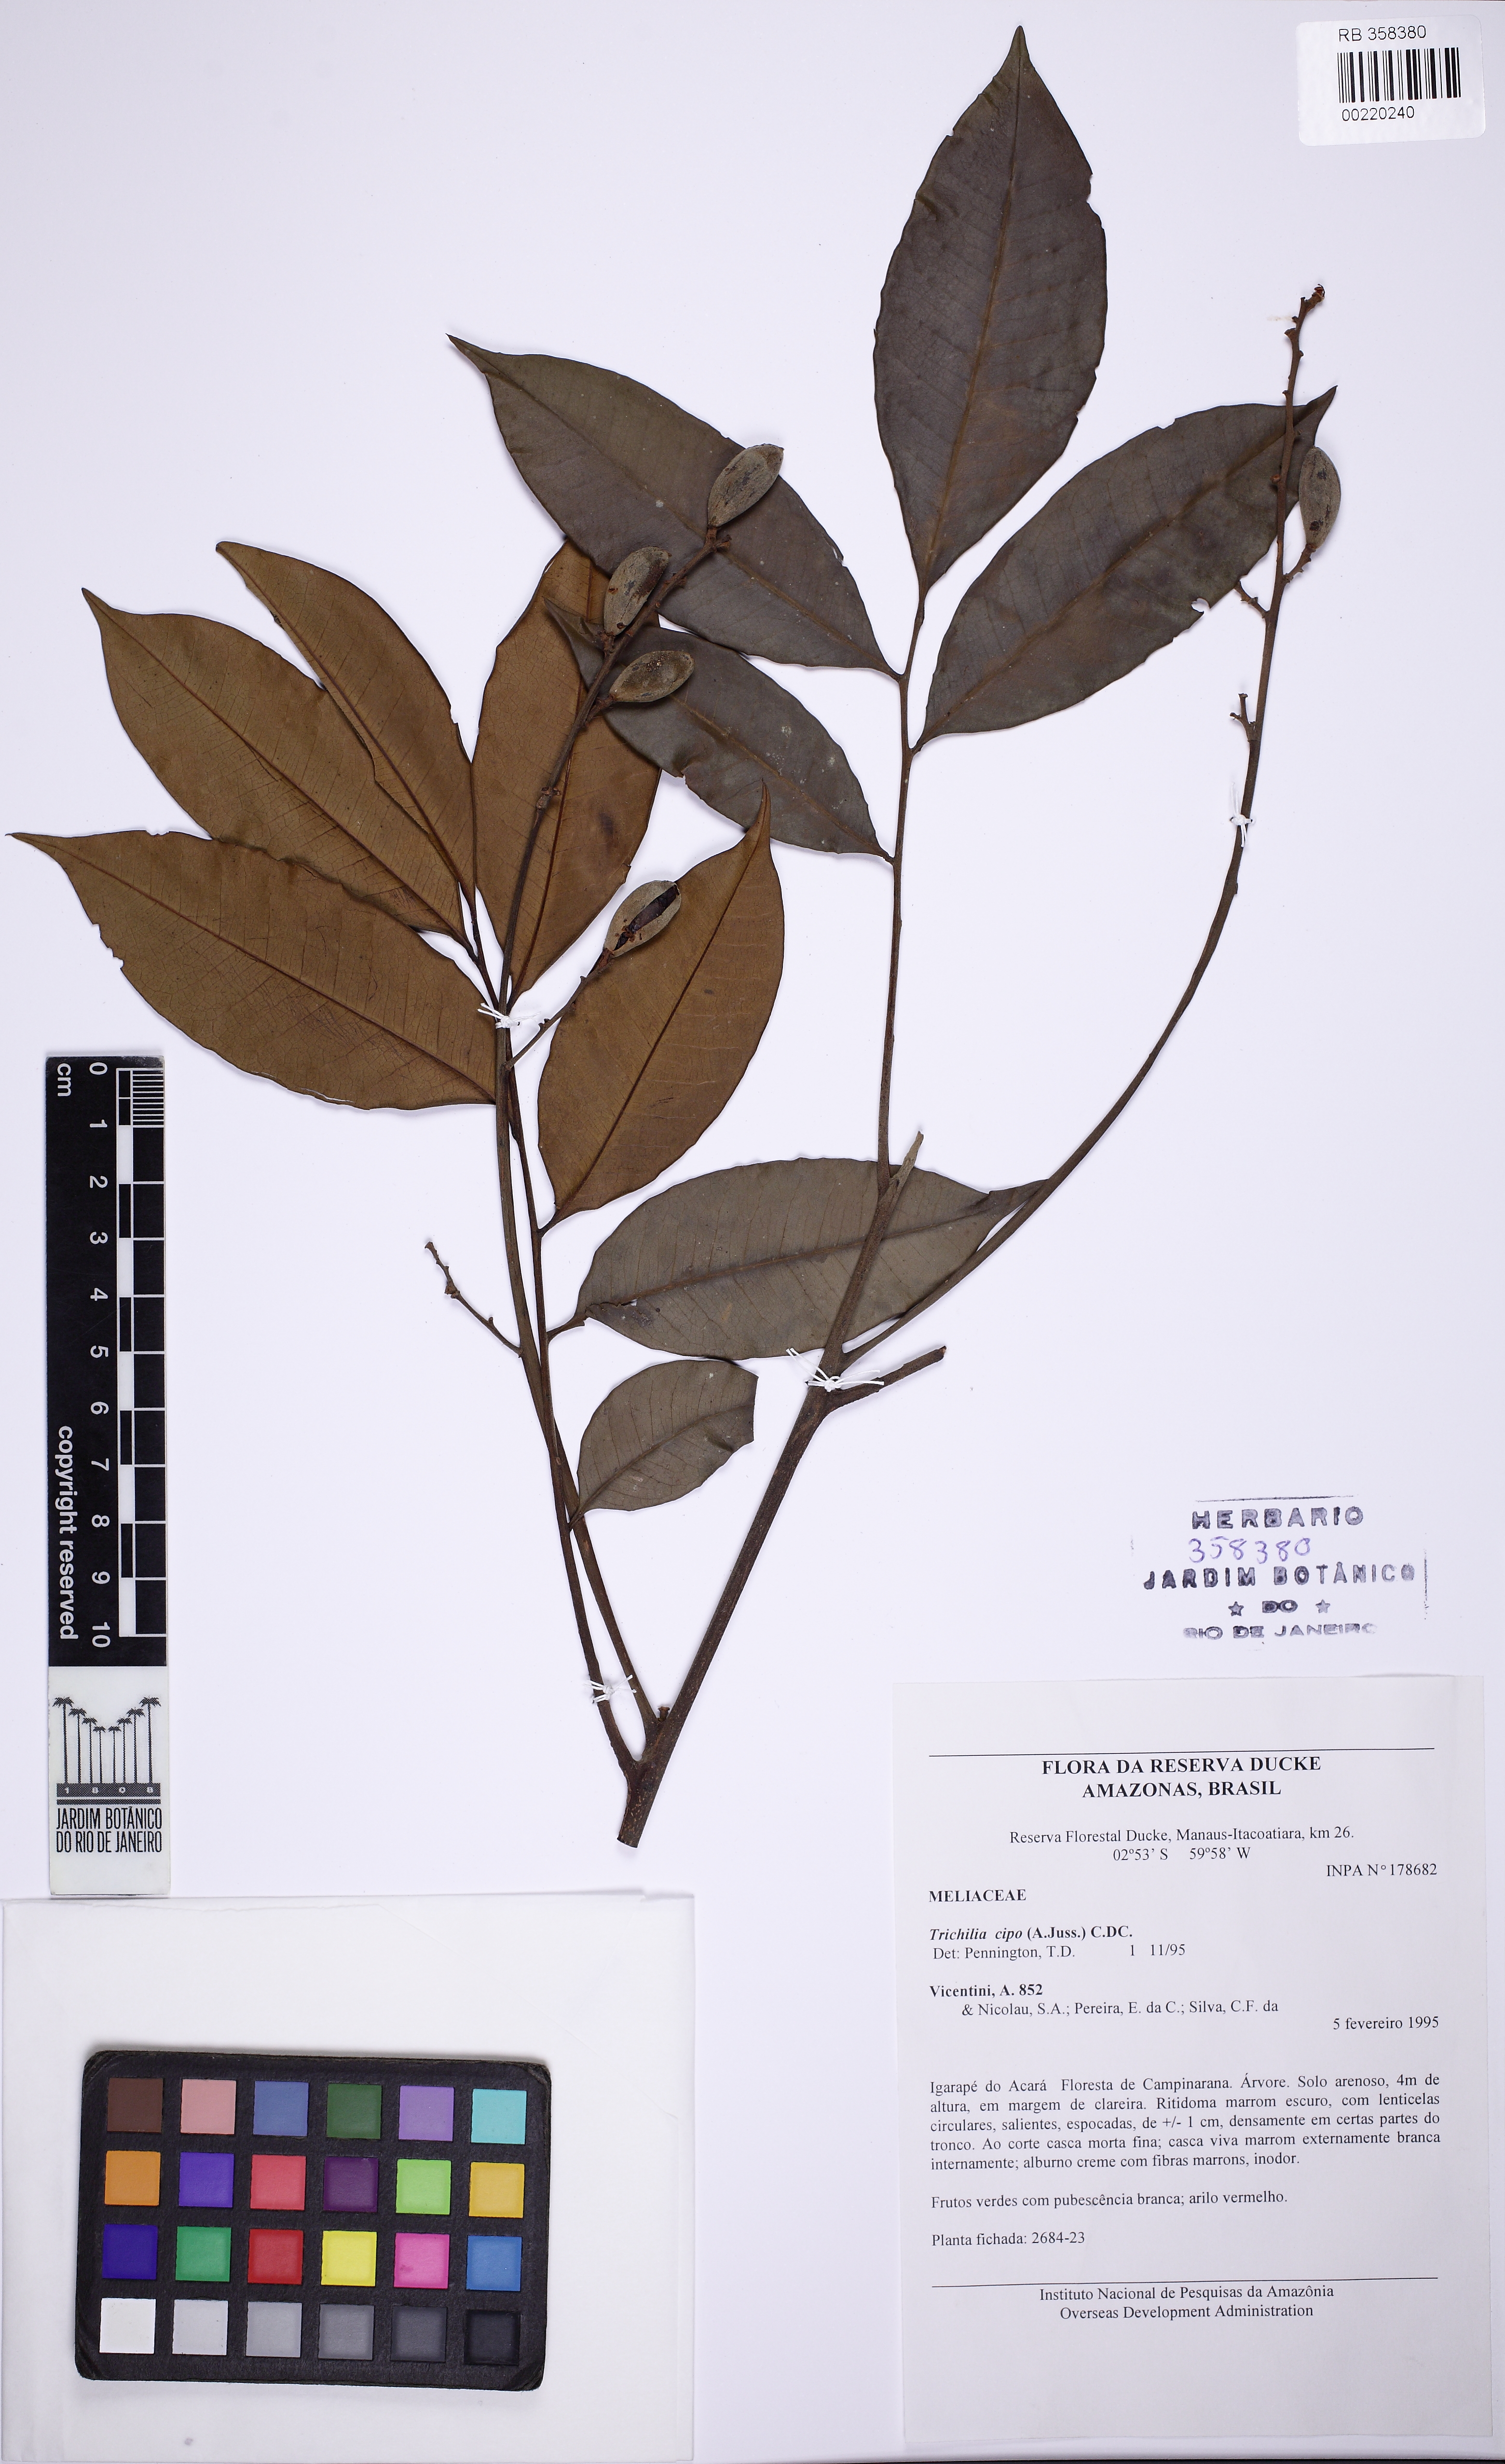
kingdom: Plantae
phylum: Tracheophyta
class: Magnoliopsida
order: Sapindales
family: Meliaceae
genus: Trichilia
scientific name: Trichilia cipo
